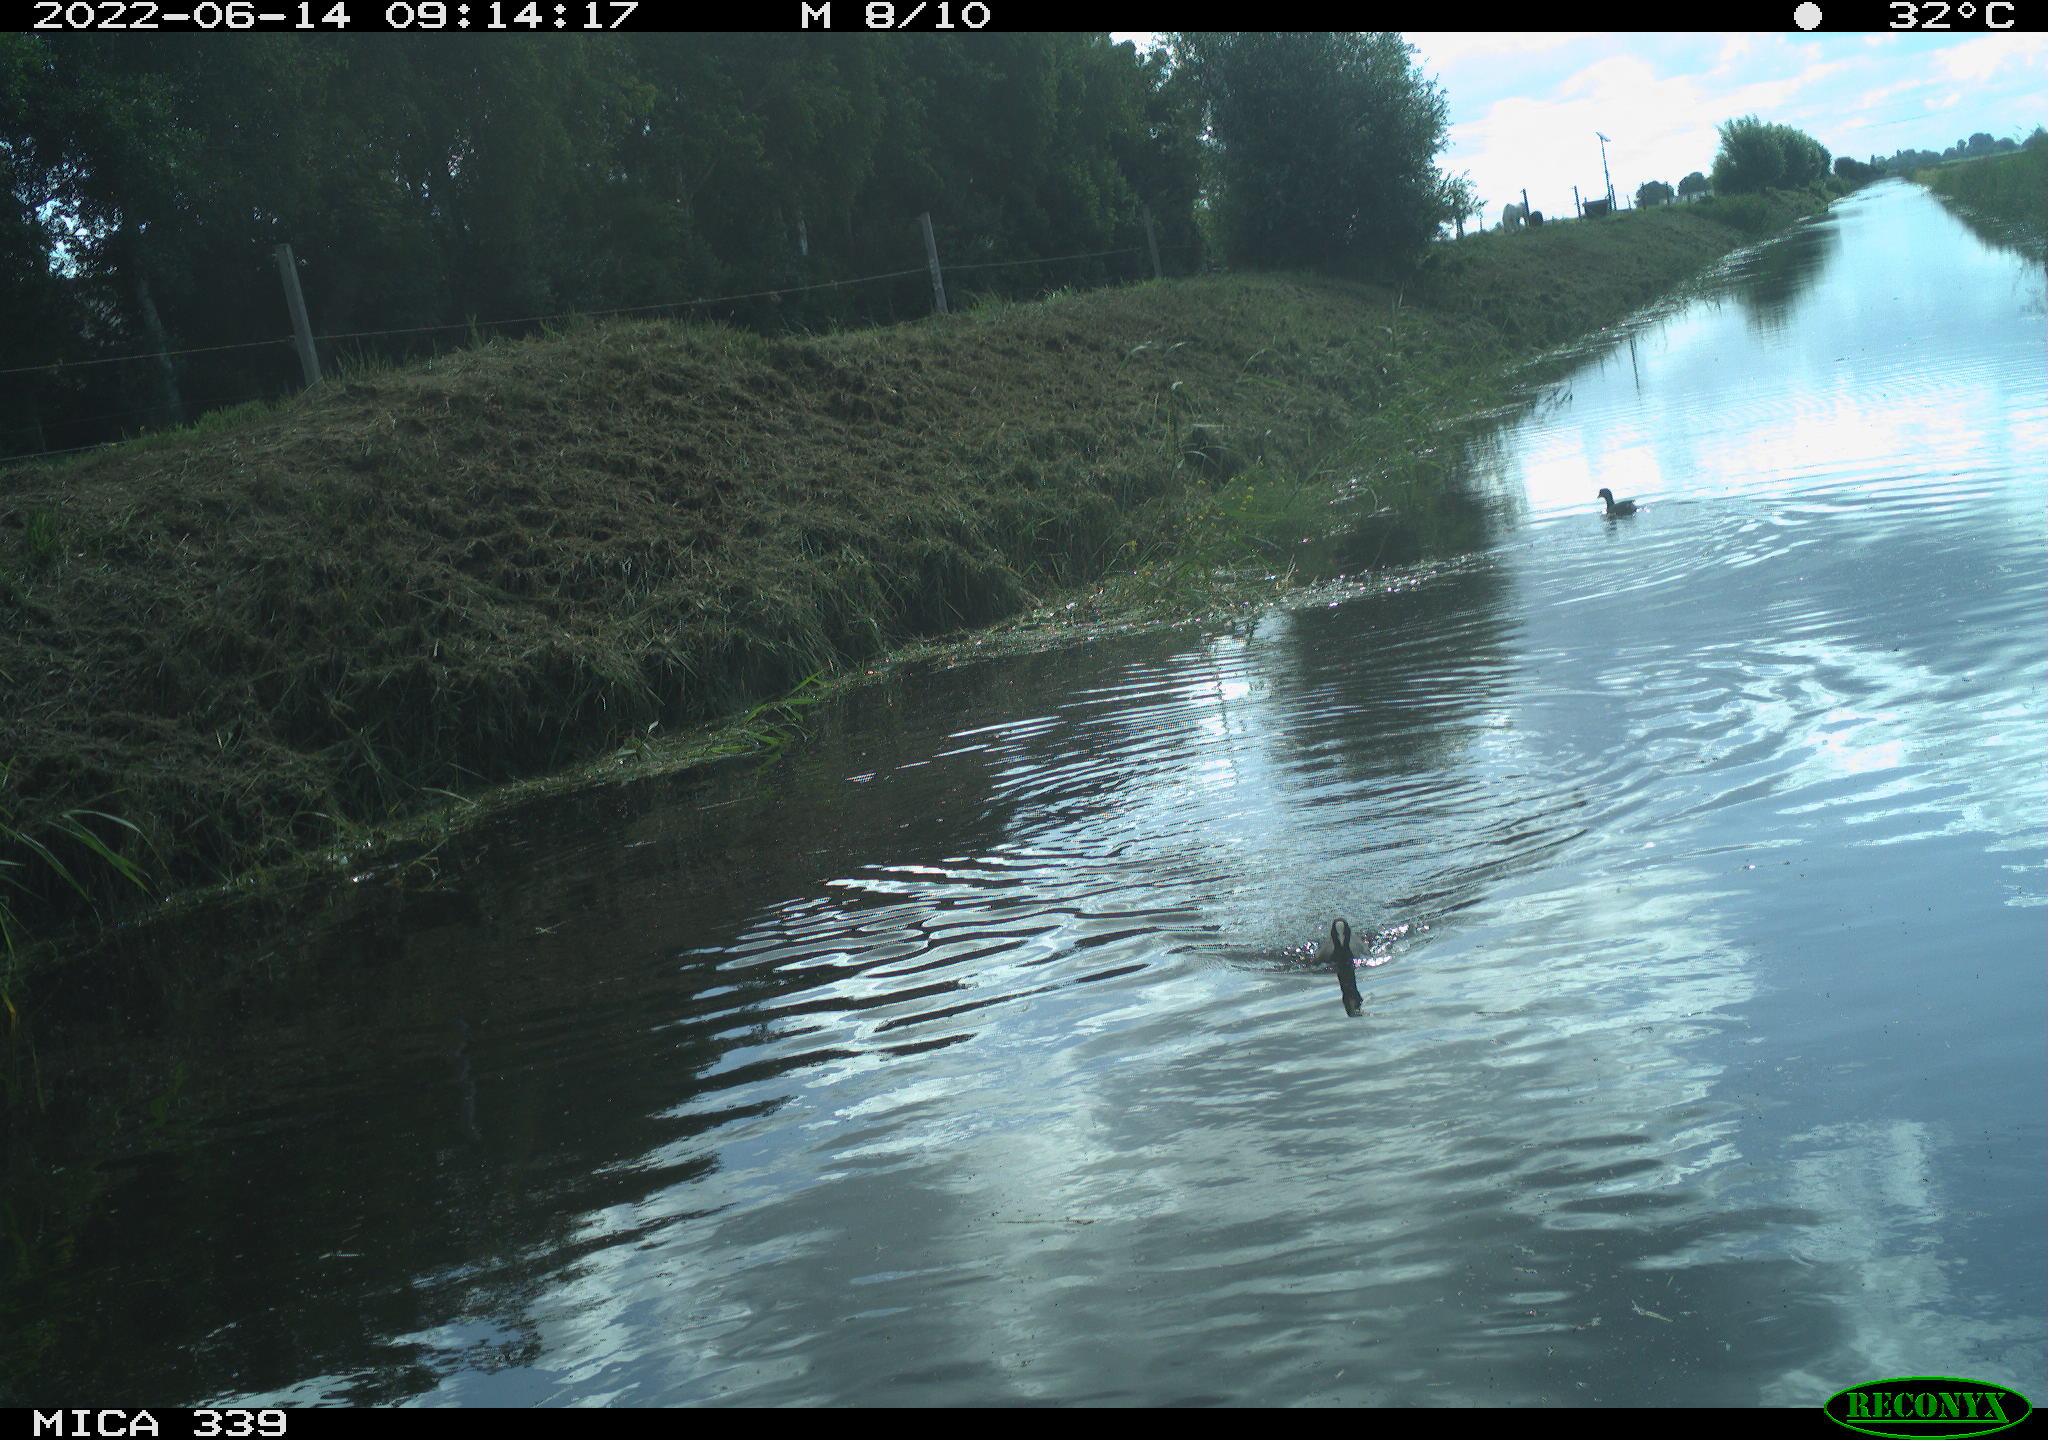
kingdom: Animalia
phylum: Chordata
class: Aves
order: Gruiformes
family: Rallidae
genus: Fulica
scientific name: Fulica atra
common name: Eurasian coot
